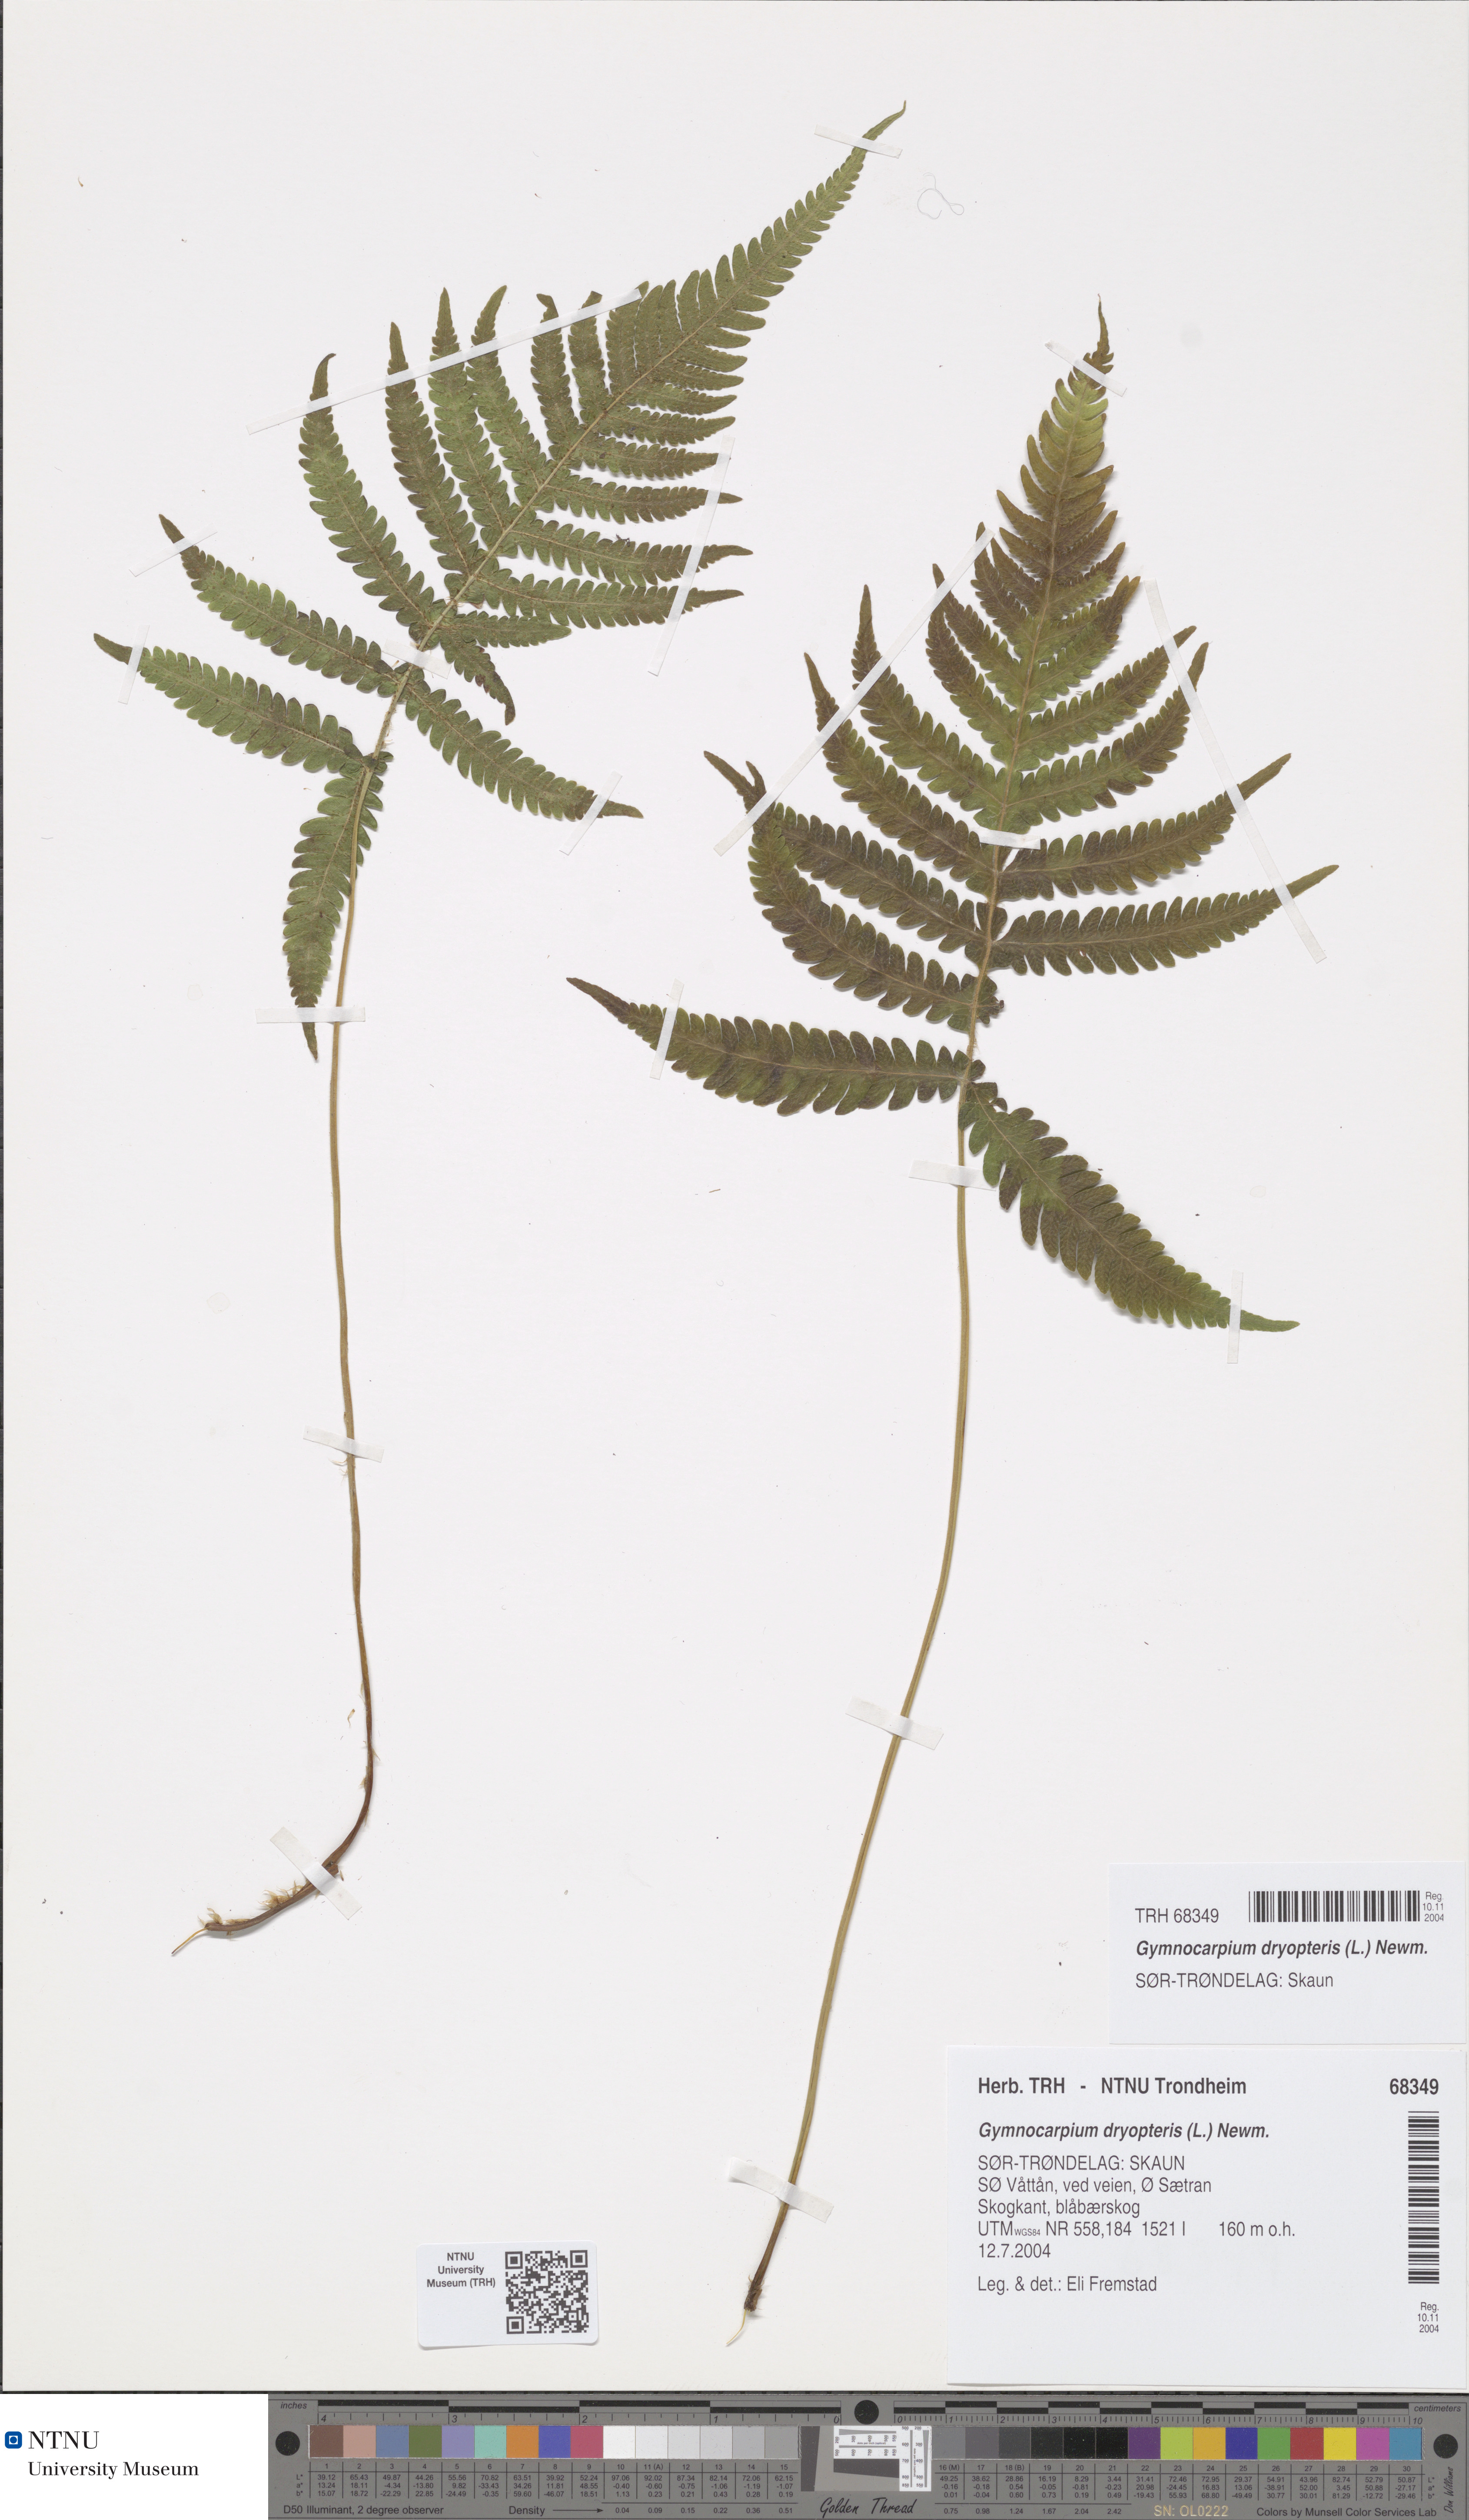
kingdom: Plantae
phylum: Tracheophyta
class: Polypodiopsida
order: Polypodiales
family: Thelypteridaceae
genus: Phegopteris
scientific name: Phegopteris connectilis
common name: Beech fern
